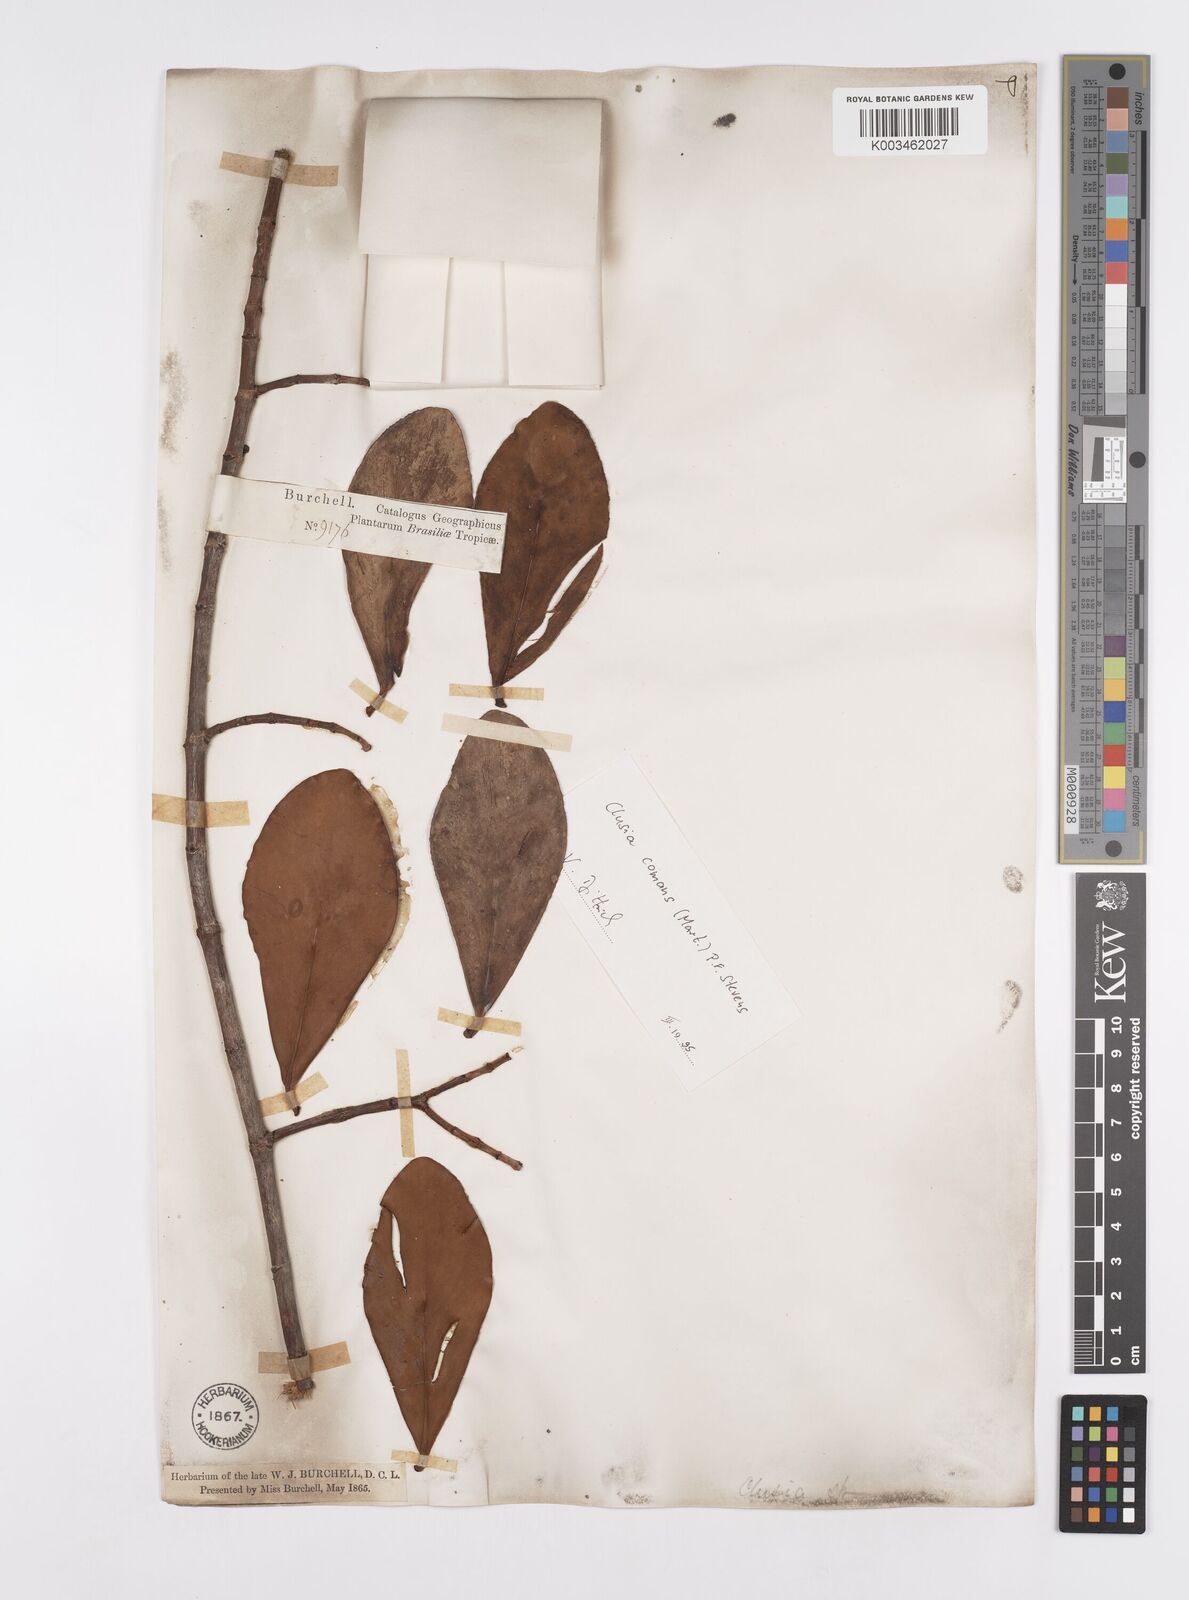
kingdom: Plantae
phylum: Tracheophyta
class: Magnoliopsida
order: Malpighiales
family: Clusiaceae
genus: Clusia
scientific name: Clusia panapanari
